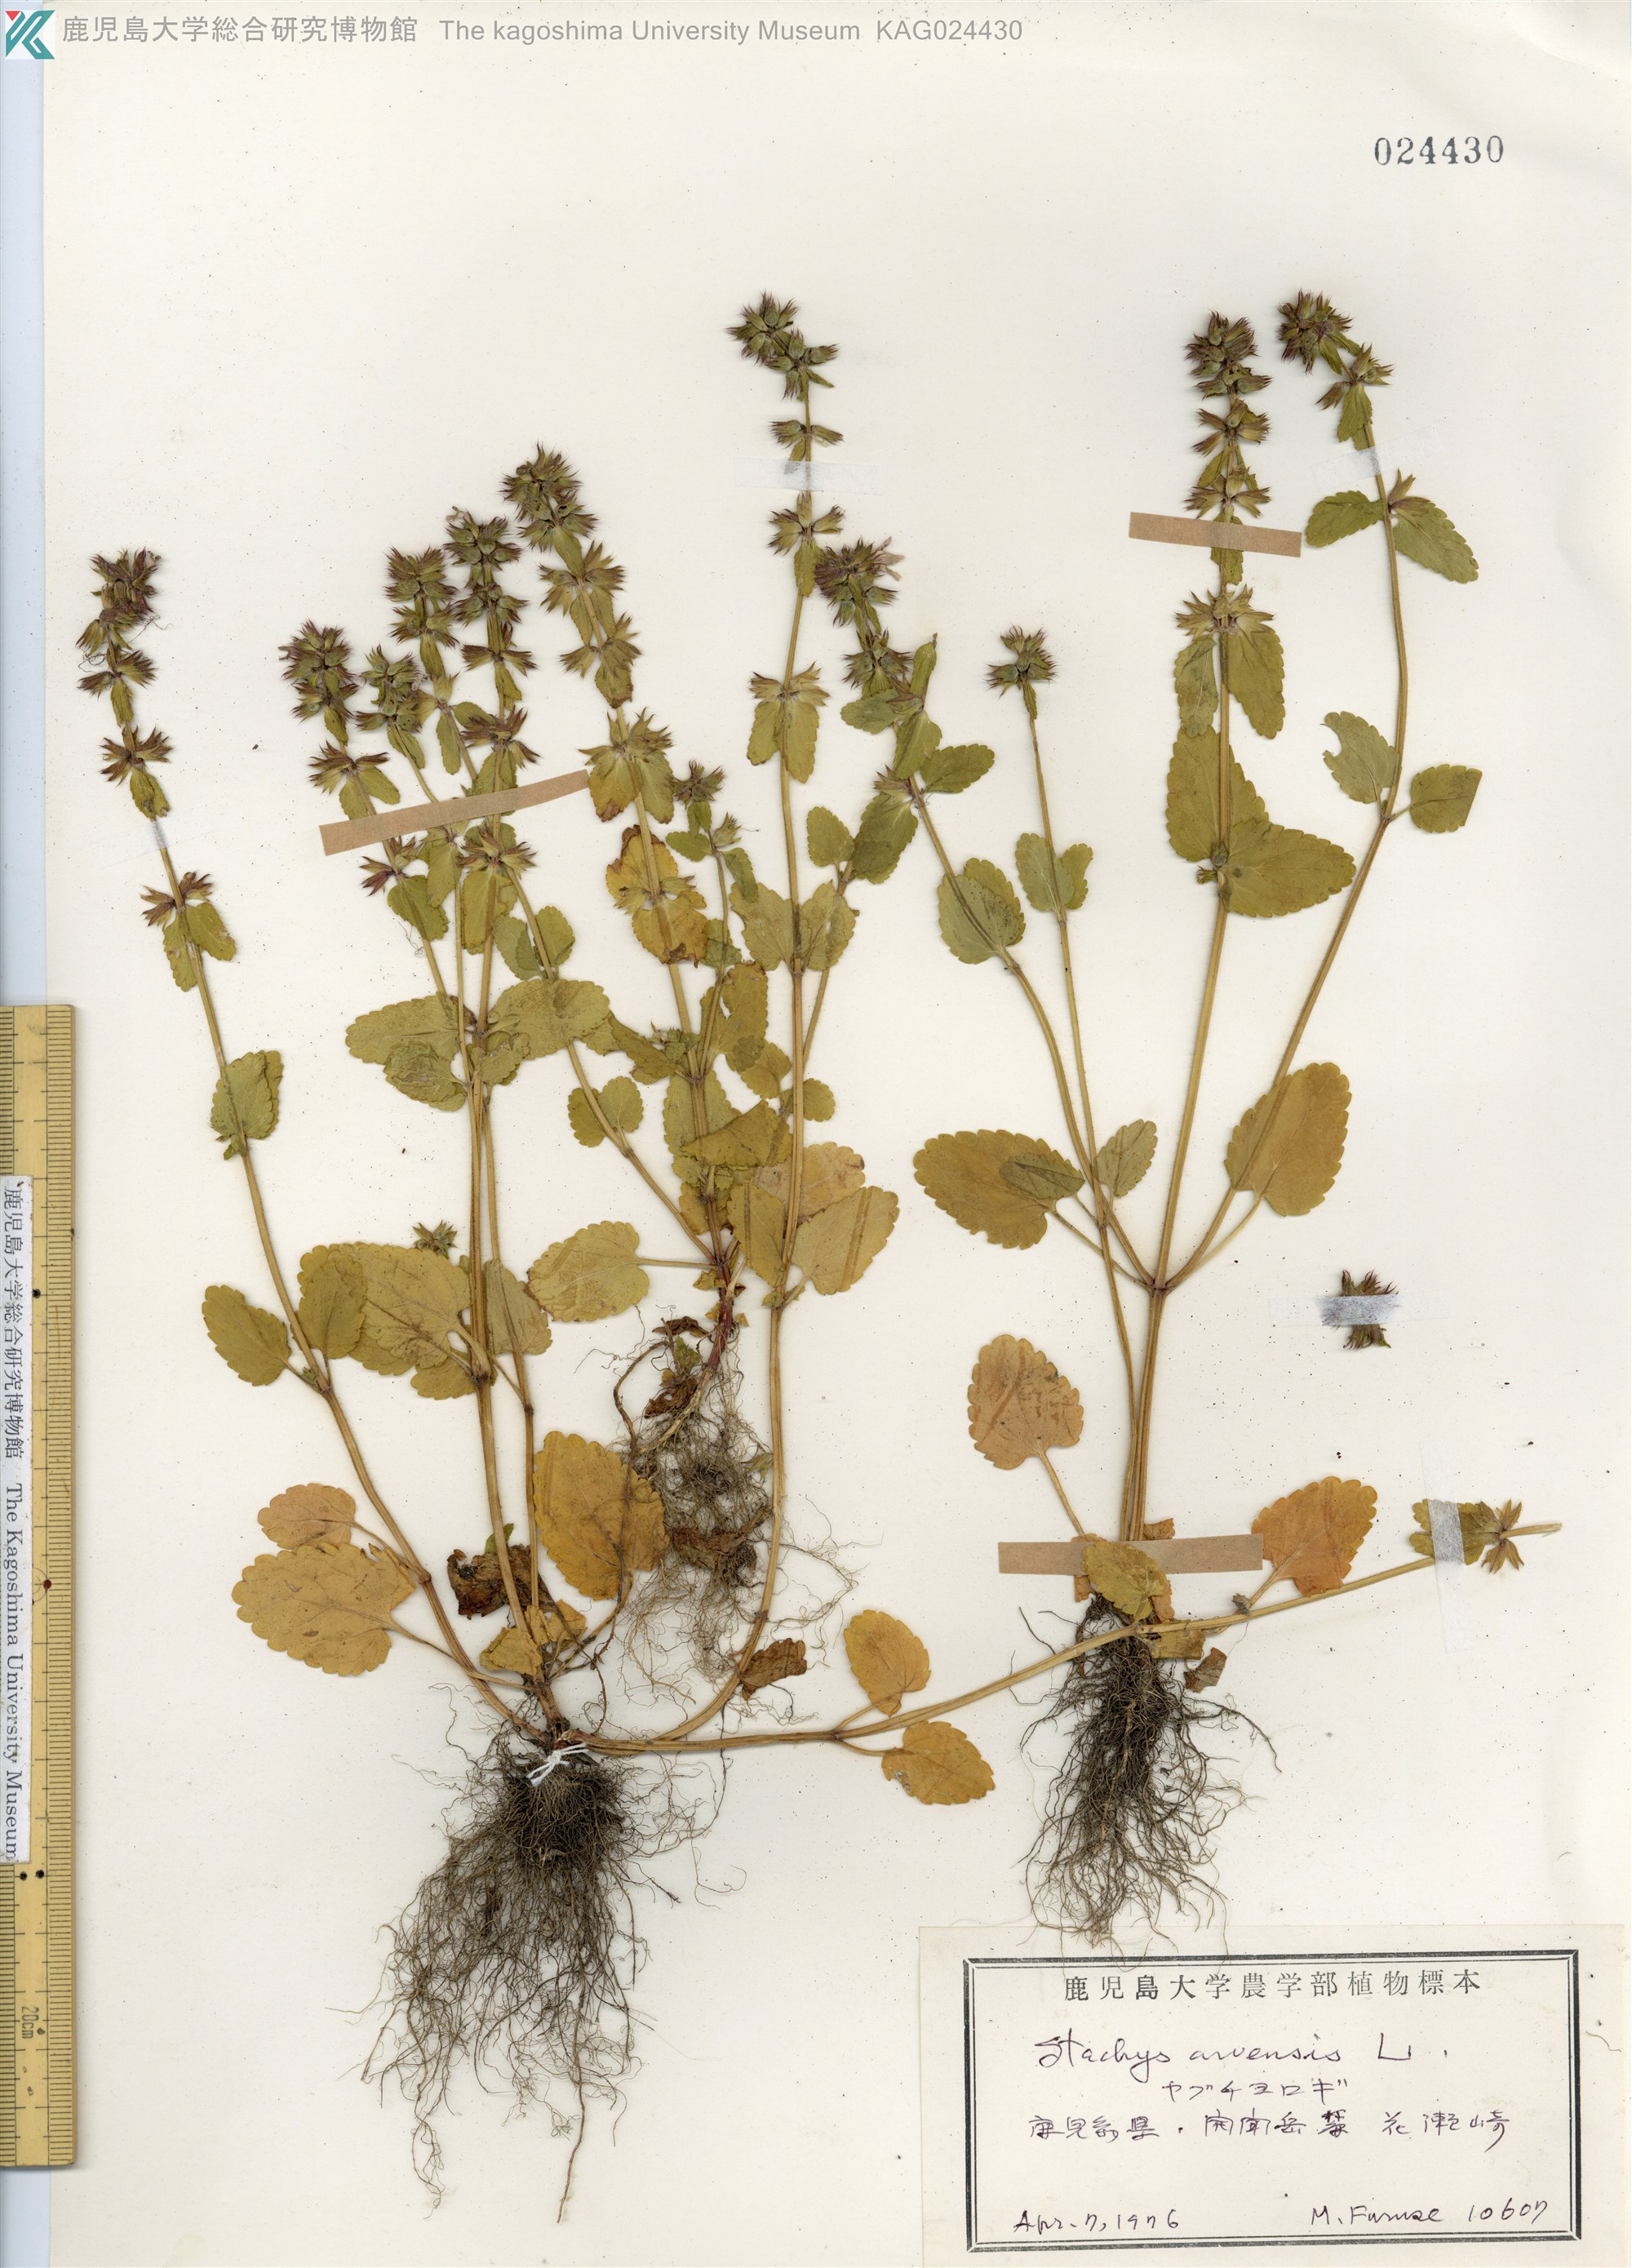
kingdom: Plantae
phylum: Tracheophyta
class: Magnoliopsida
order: Lamiales
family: Lamiaceae
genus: Stachys
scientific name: Stachys arvensis
